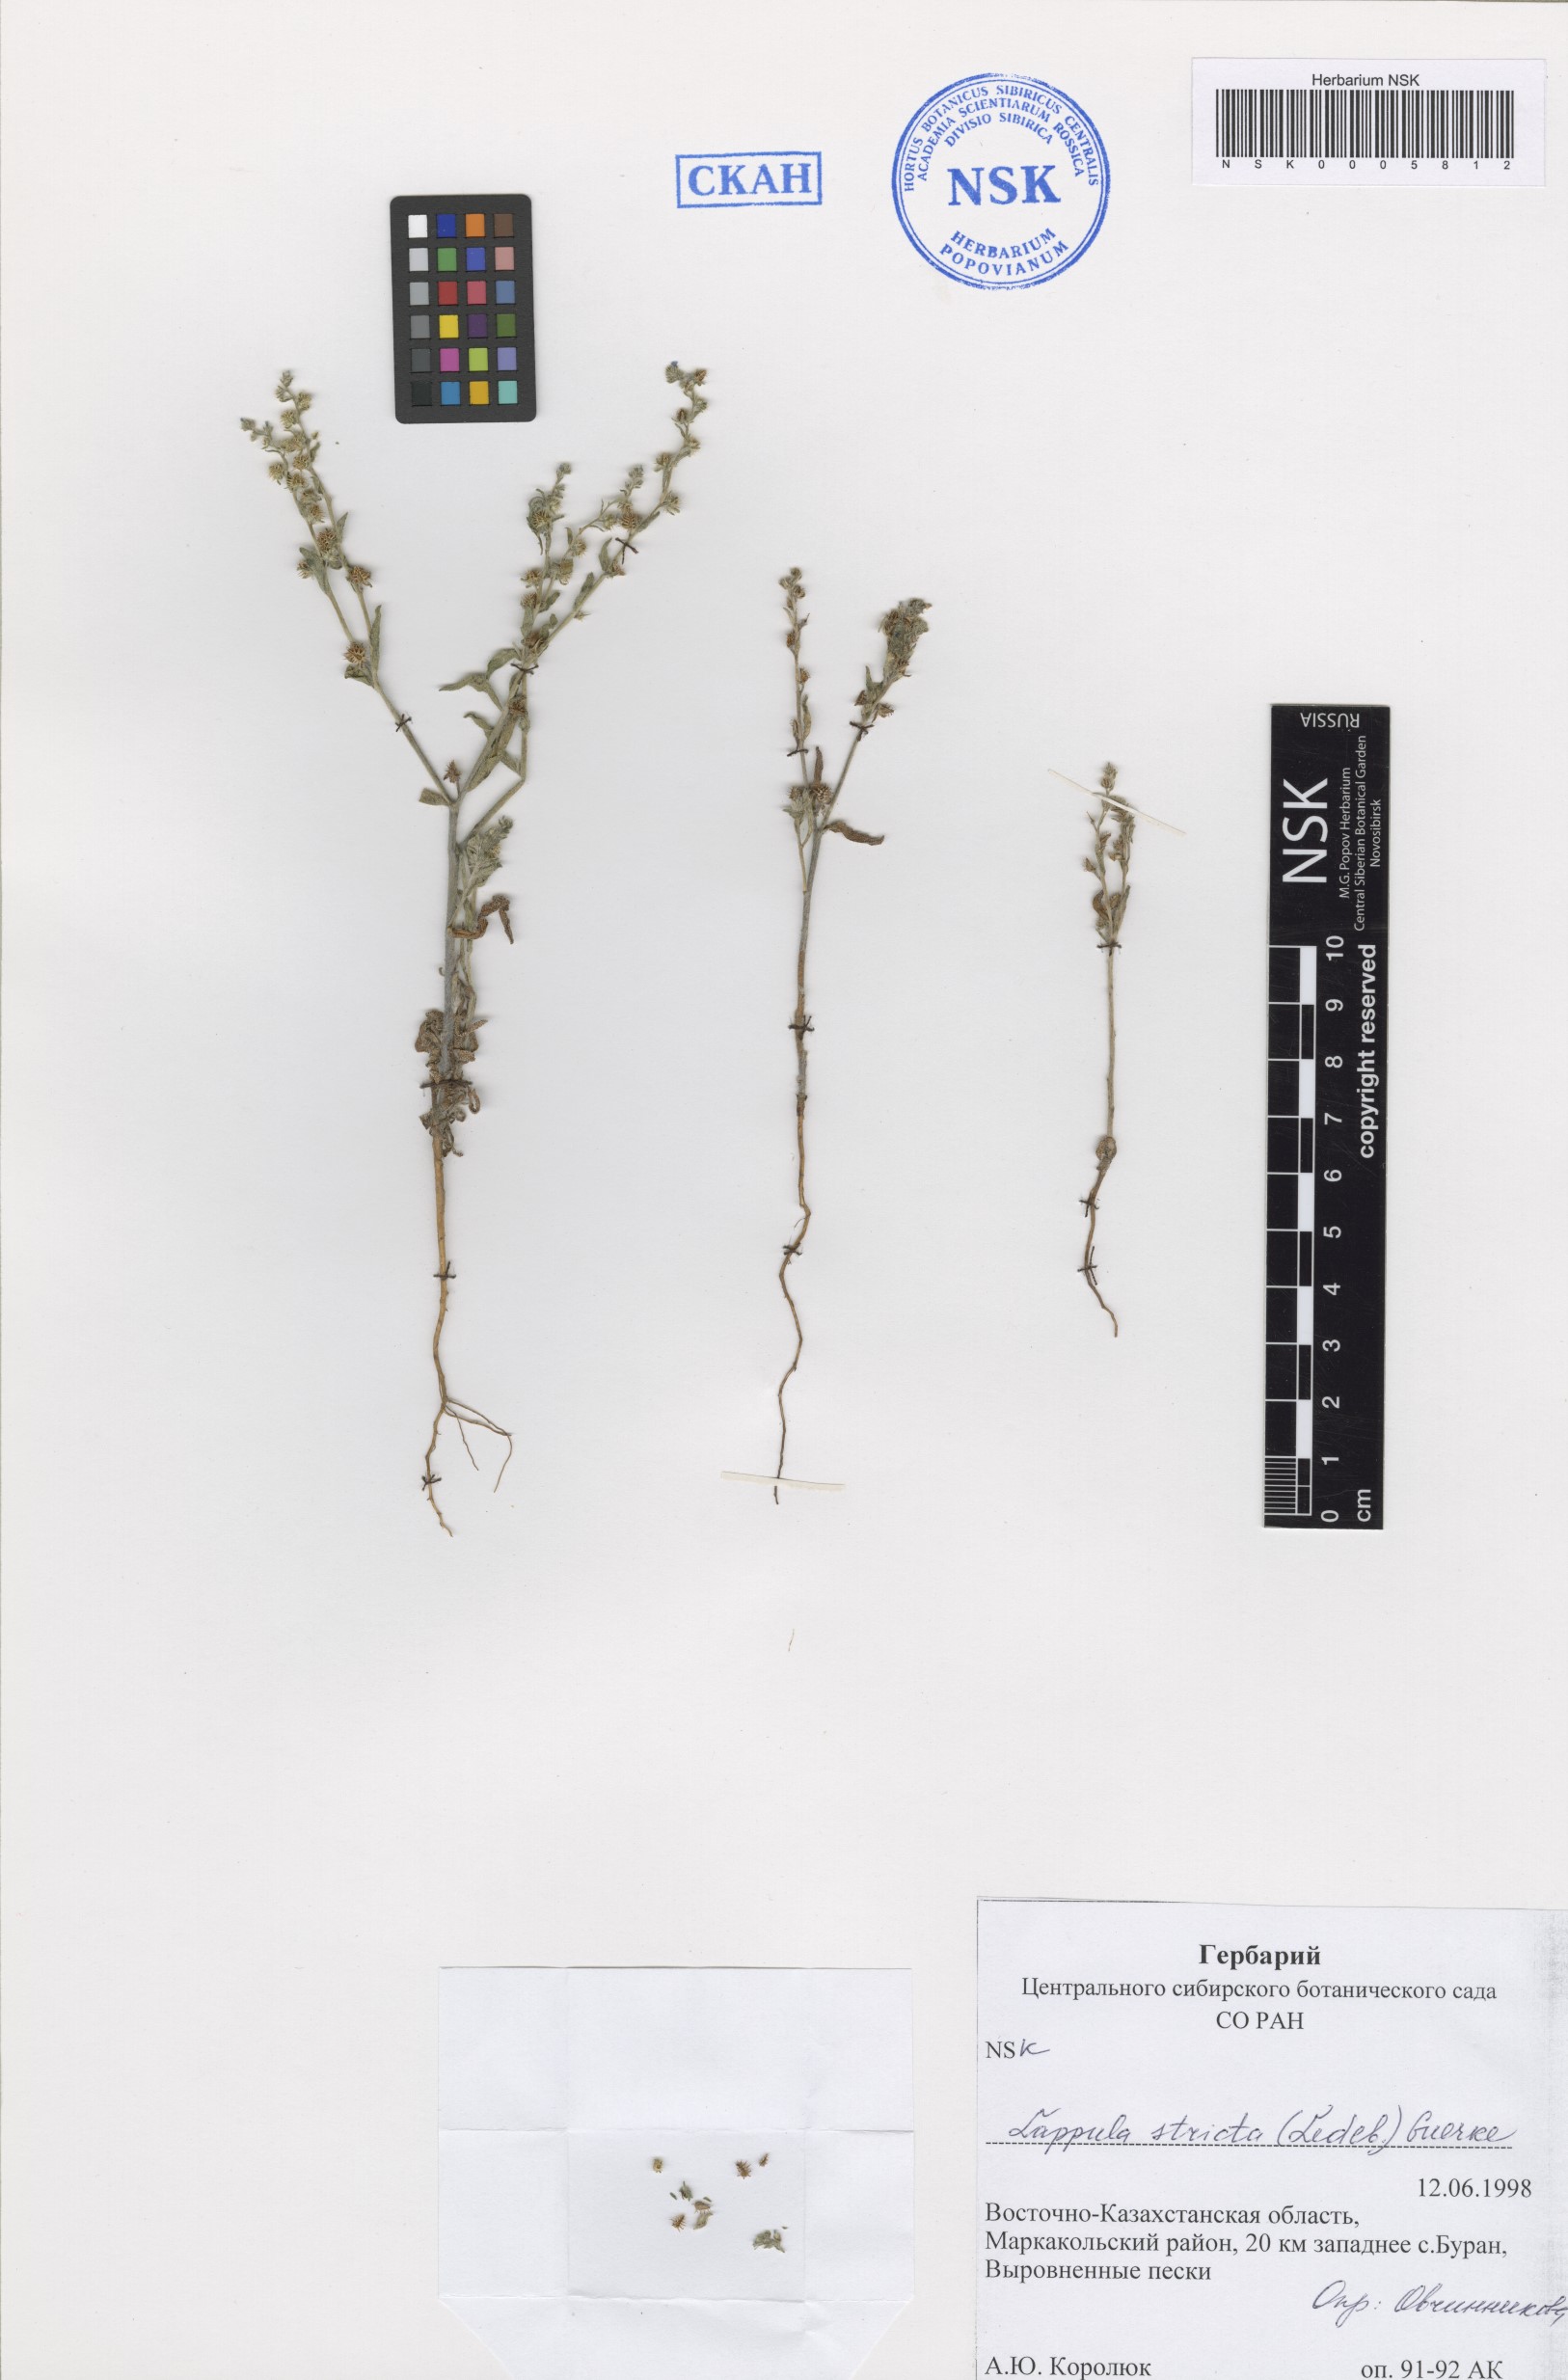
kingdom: Plantae
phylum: Tracheophyta
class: Magnoliopsida
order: Boraginales
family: Boraginaceae
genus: Lappula
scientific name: Lappula stricta
